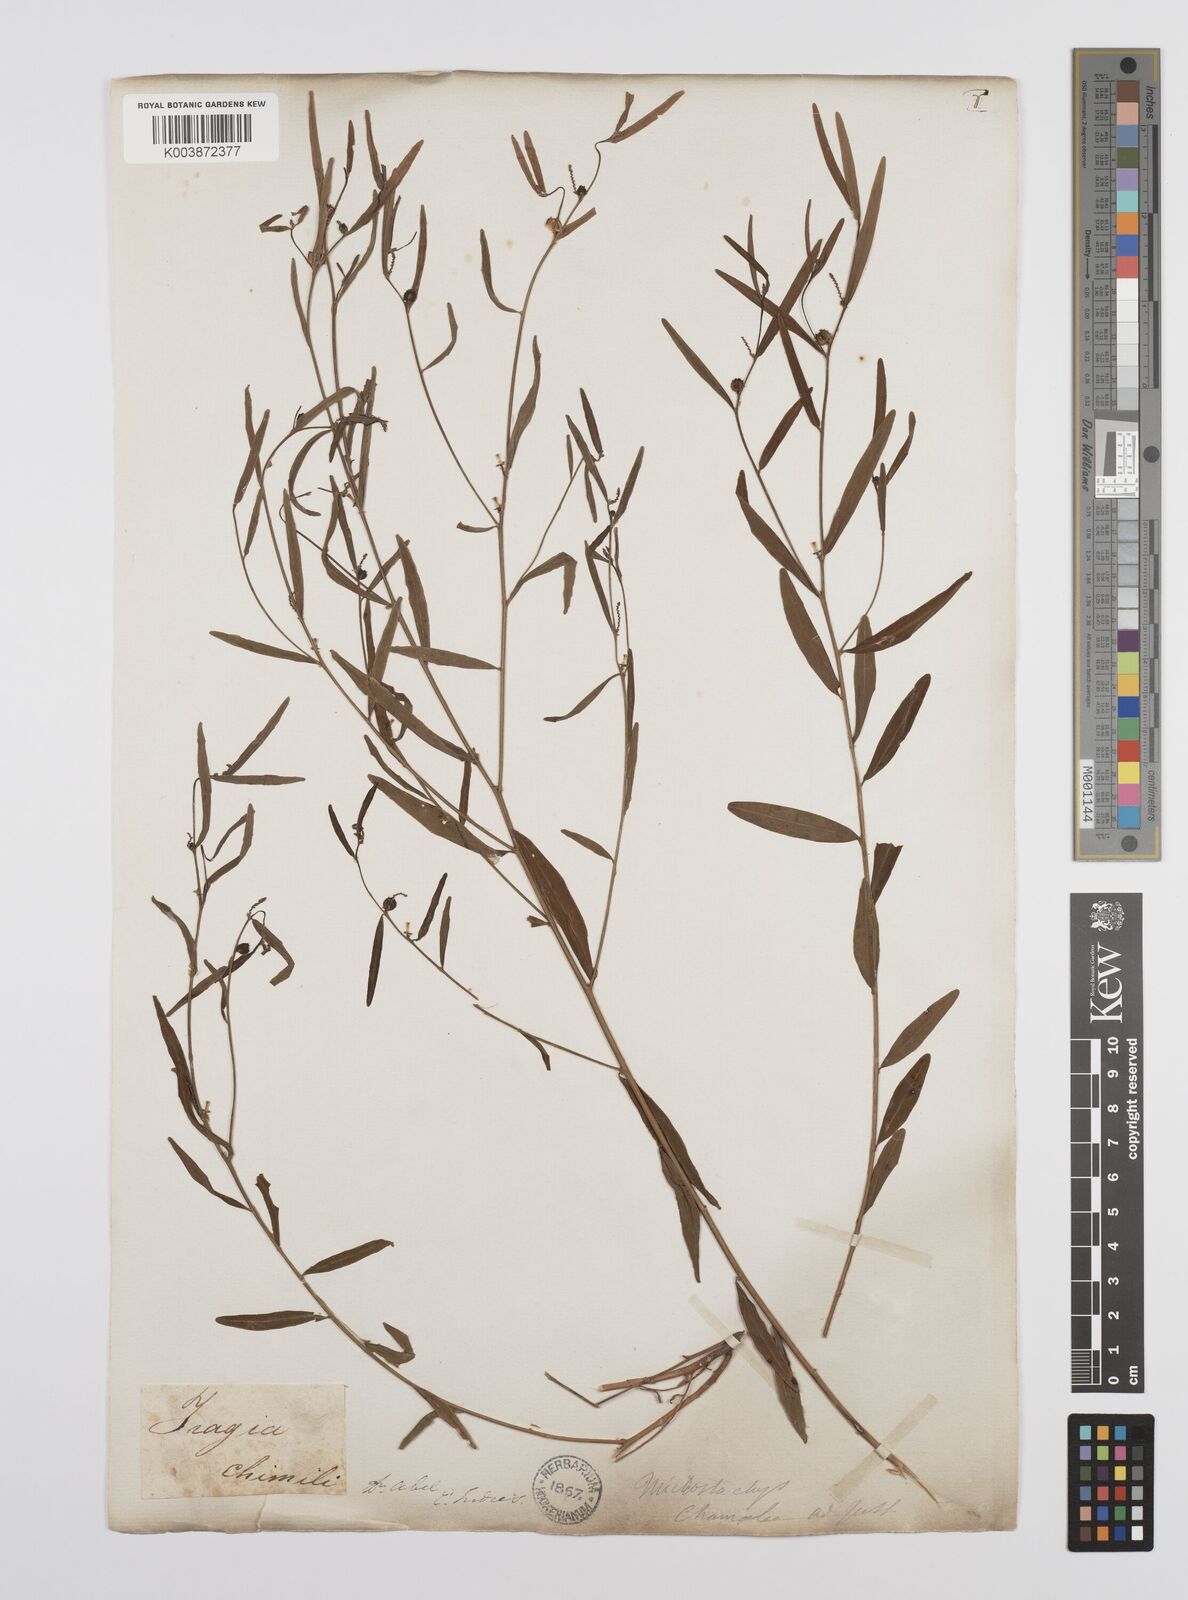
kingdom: Plantae
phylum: Tracheophyta
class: Magnoliopsida
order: Malpighiales
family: Euphorbiaceae
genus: Microstachys
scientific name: Microstachys chamaelea
